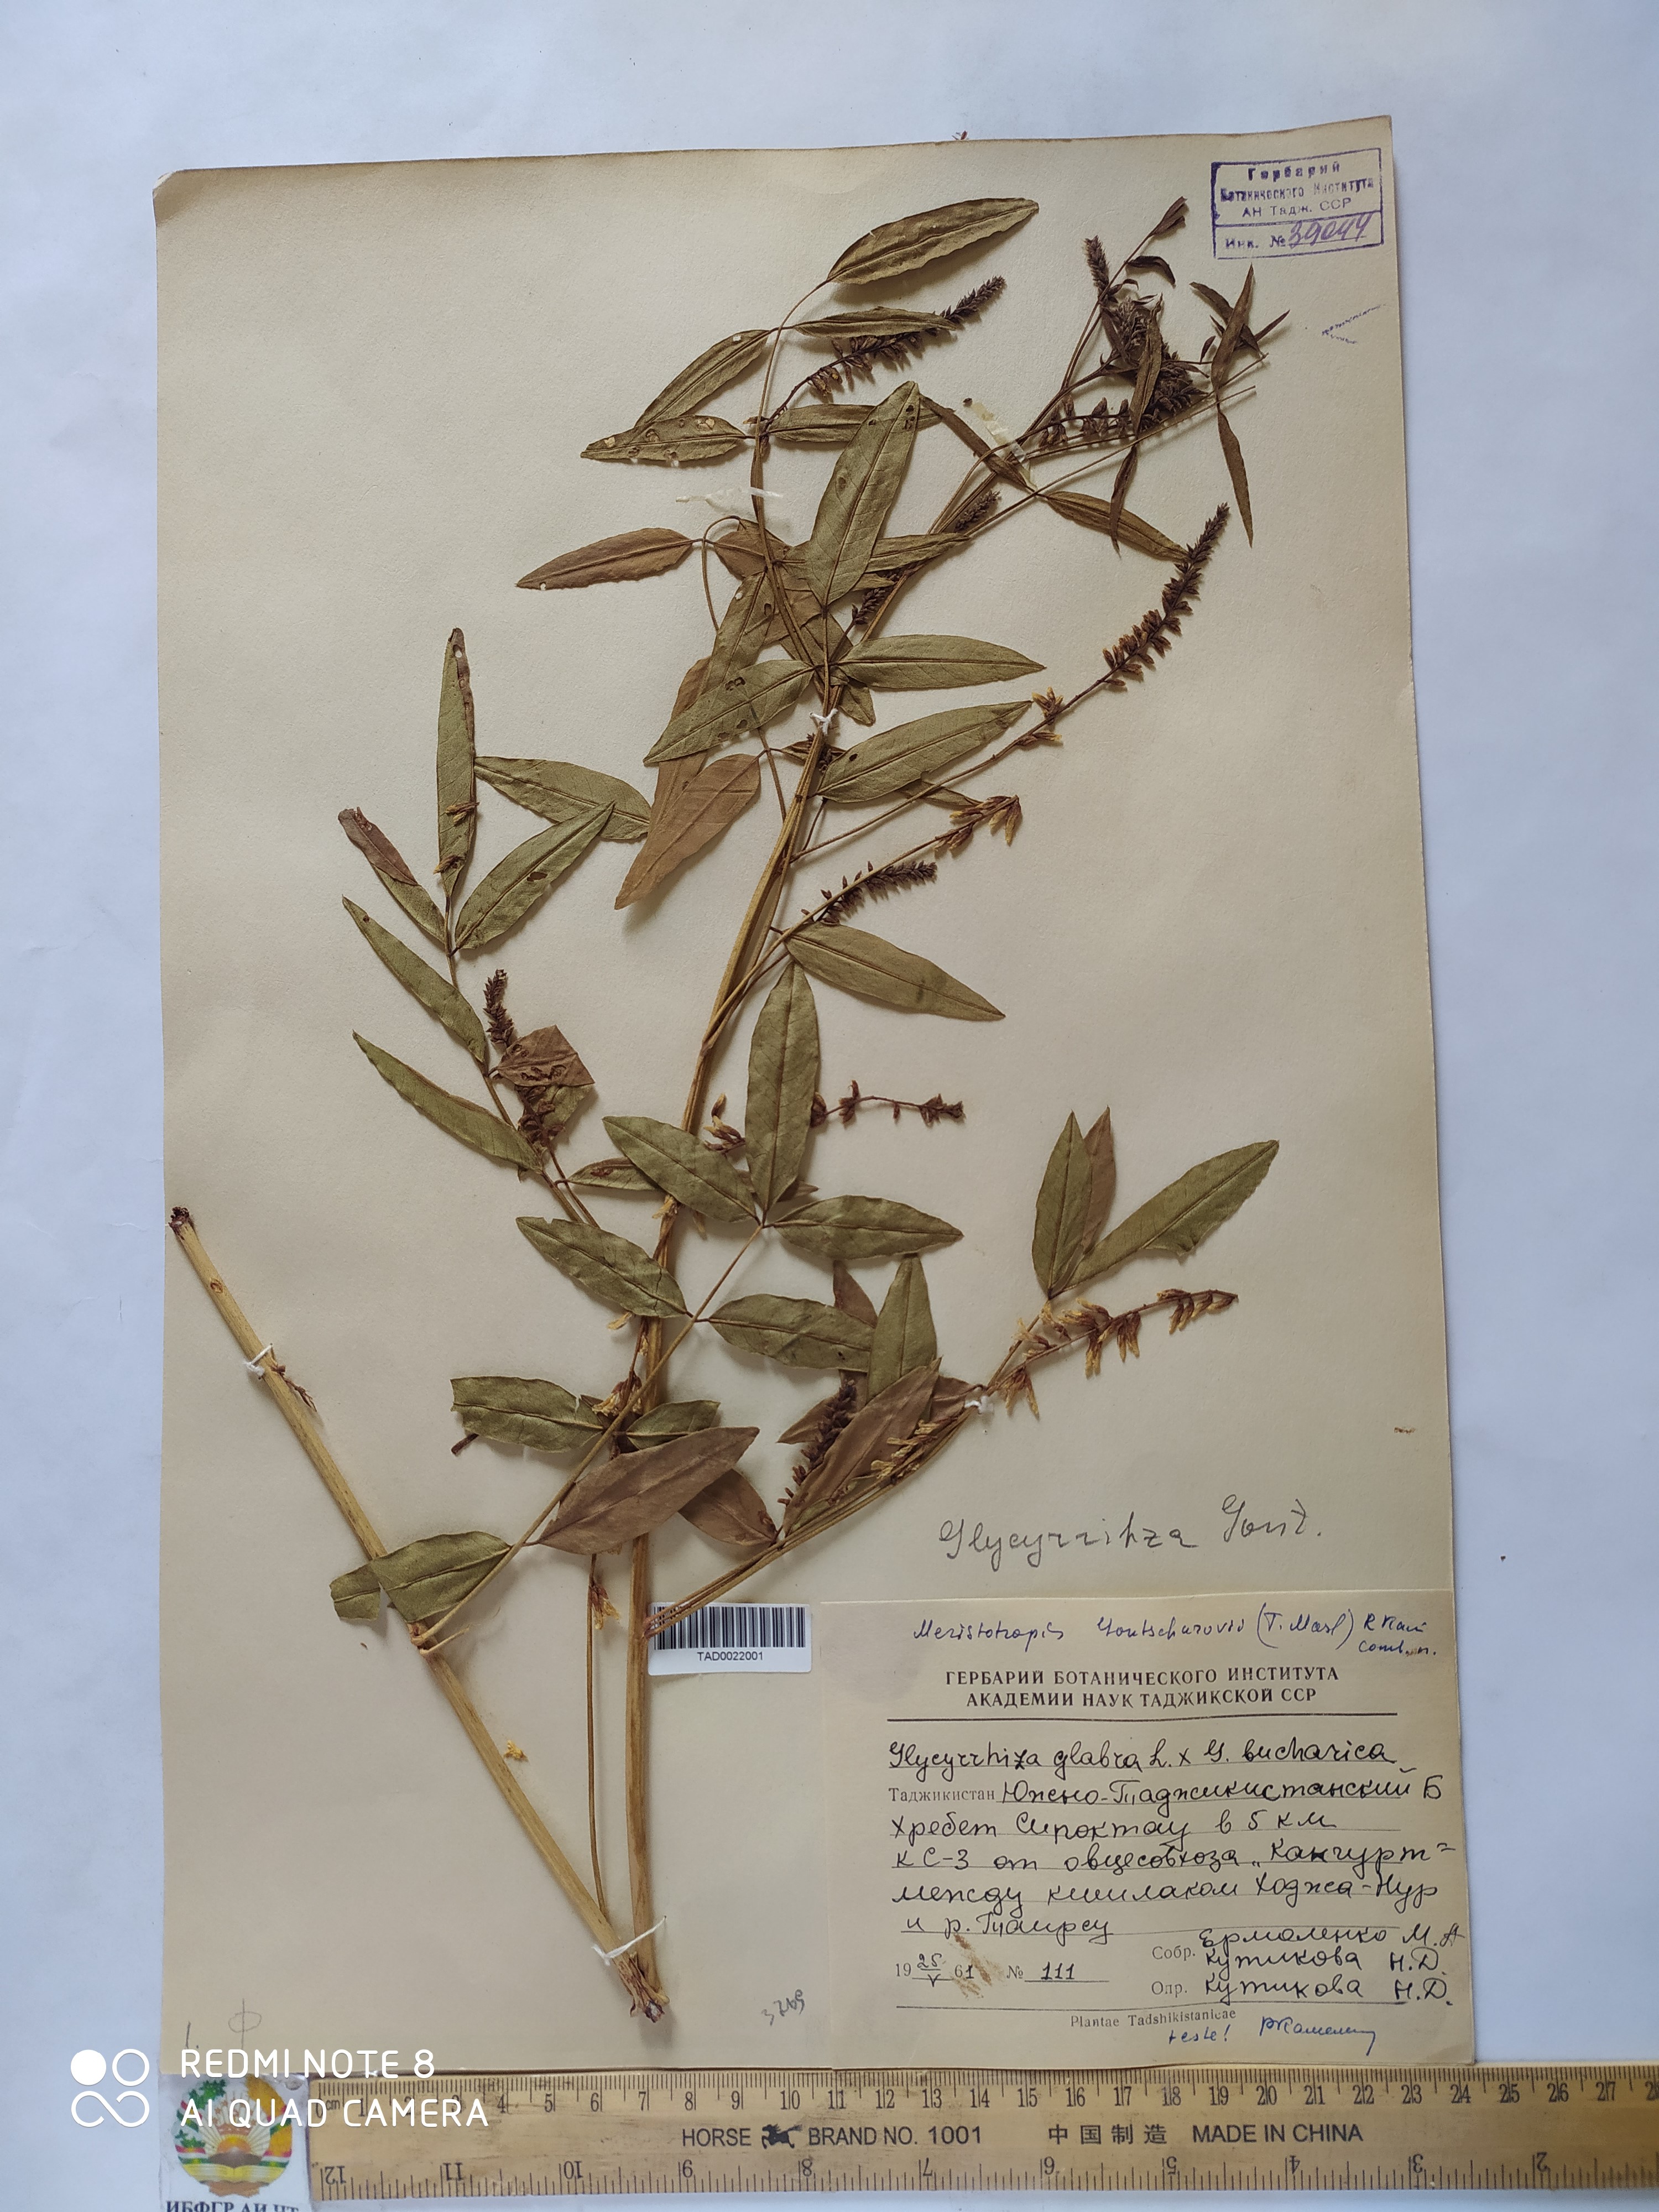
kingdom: Plantae
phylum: Tracheophyta
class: Magnoliopsida
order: Fabales
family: Fabaceae
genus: Glycyrrhiza
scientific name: Glycyrrhiza gontscharovii
